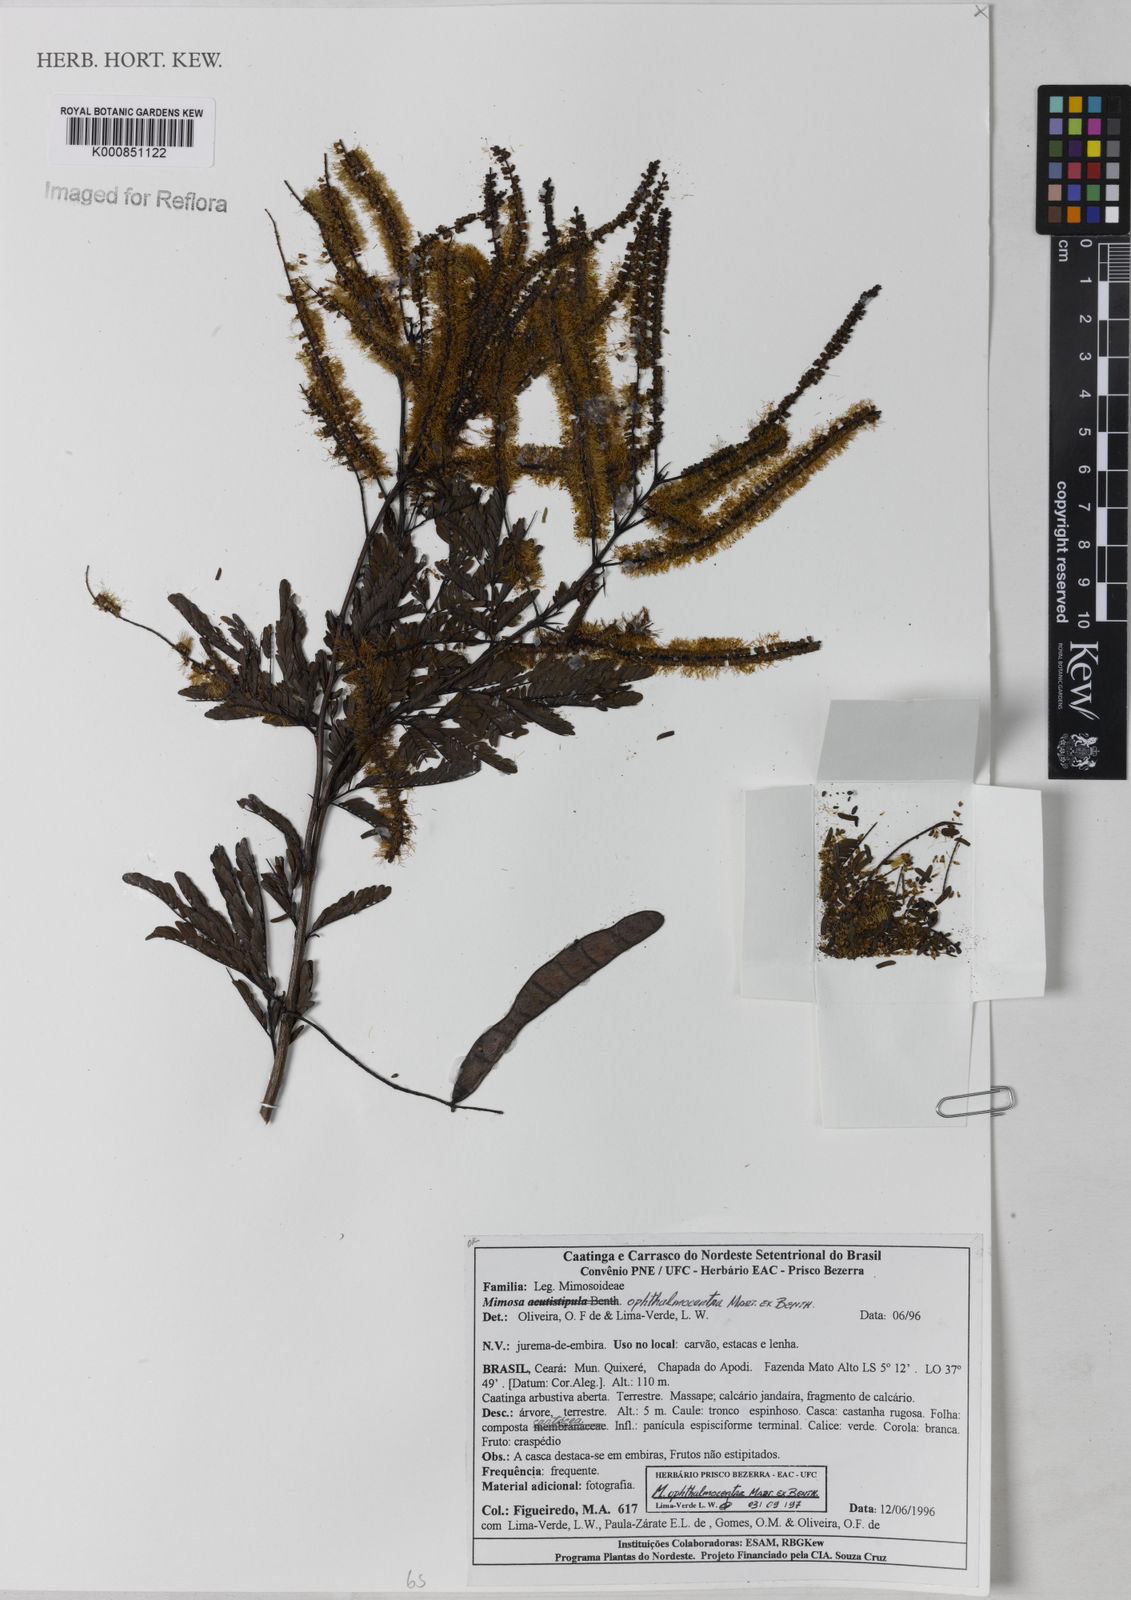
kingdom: Plantae
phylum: Tracheophyta
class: Magnoliopsida
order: Fabales
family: Fabaceae
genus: Mimosa
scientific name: Mimosa ophthalmocentra
